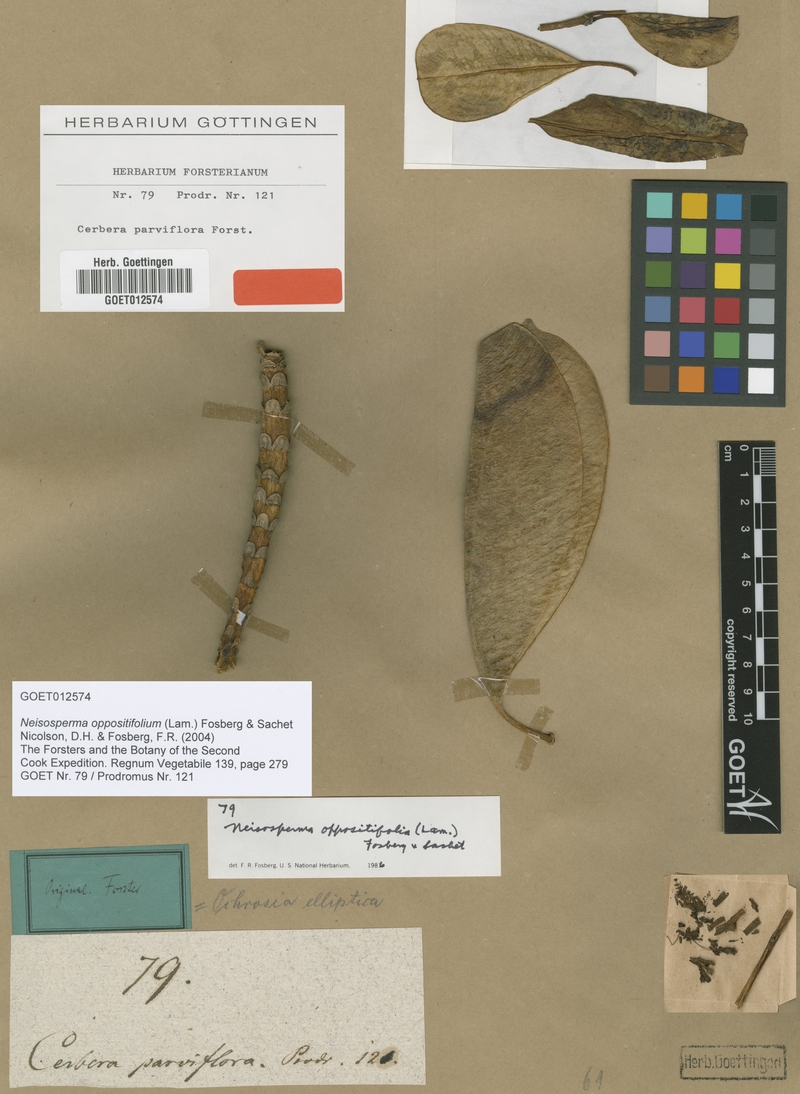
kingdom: Plantae
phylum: Tracheophyta
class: Magnoliopsida
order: Gentianales
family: Apocynaceae
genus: Ochrosia
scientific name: Ochrosia oppositifolia
